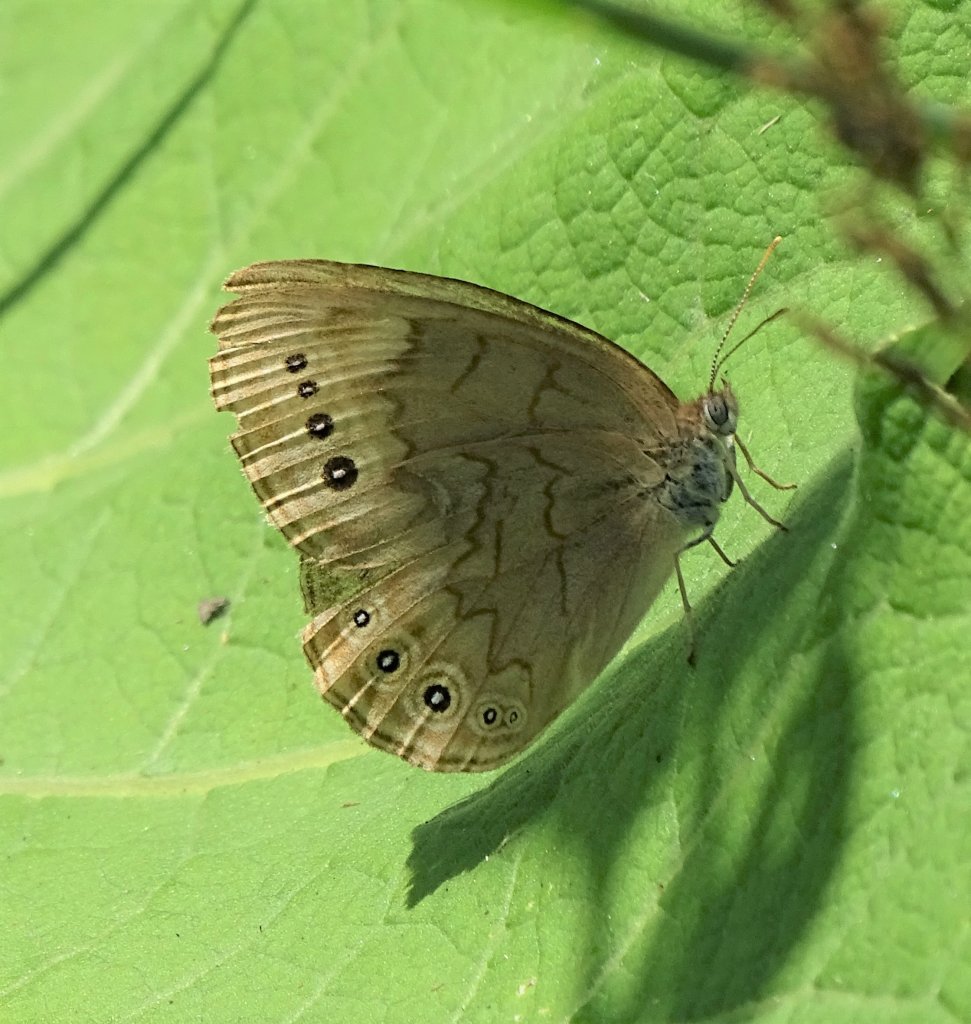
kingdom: Animalia
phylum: Arthropoda
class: Insecta
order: Lepidoptera
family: Nymphalidae
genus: Lethe
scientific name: Lethe eurydice
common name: Eyed Brown
